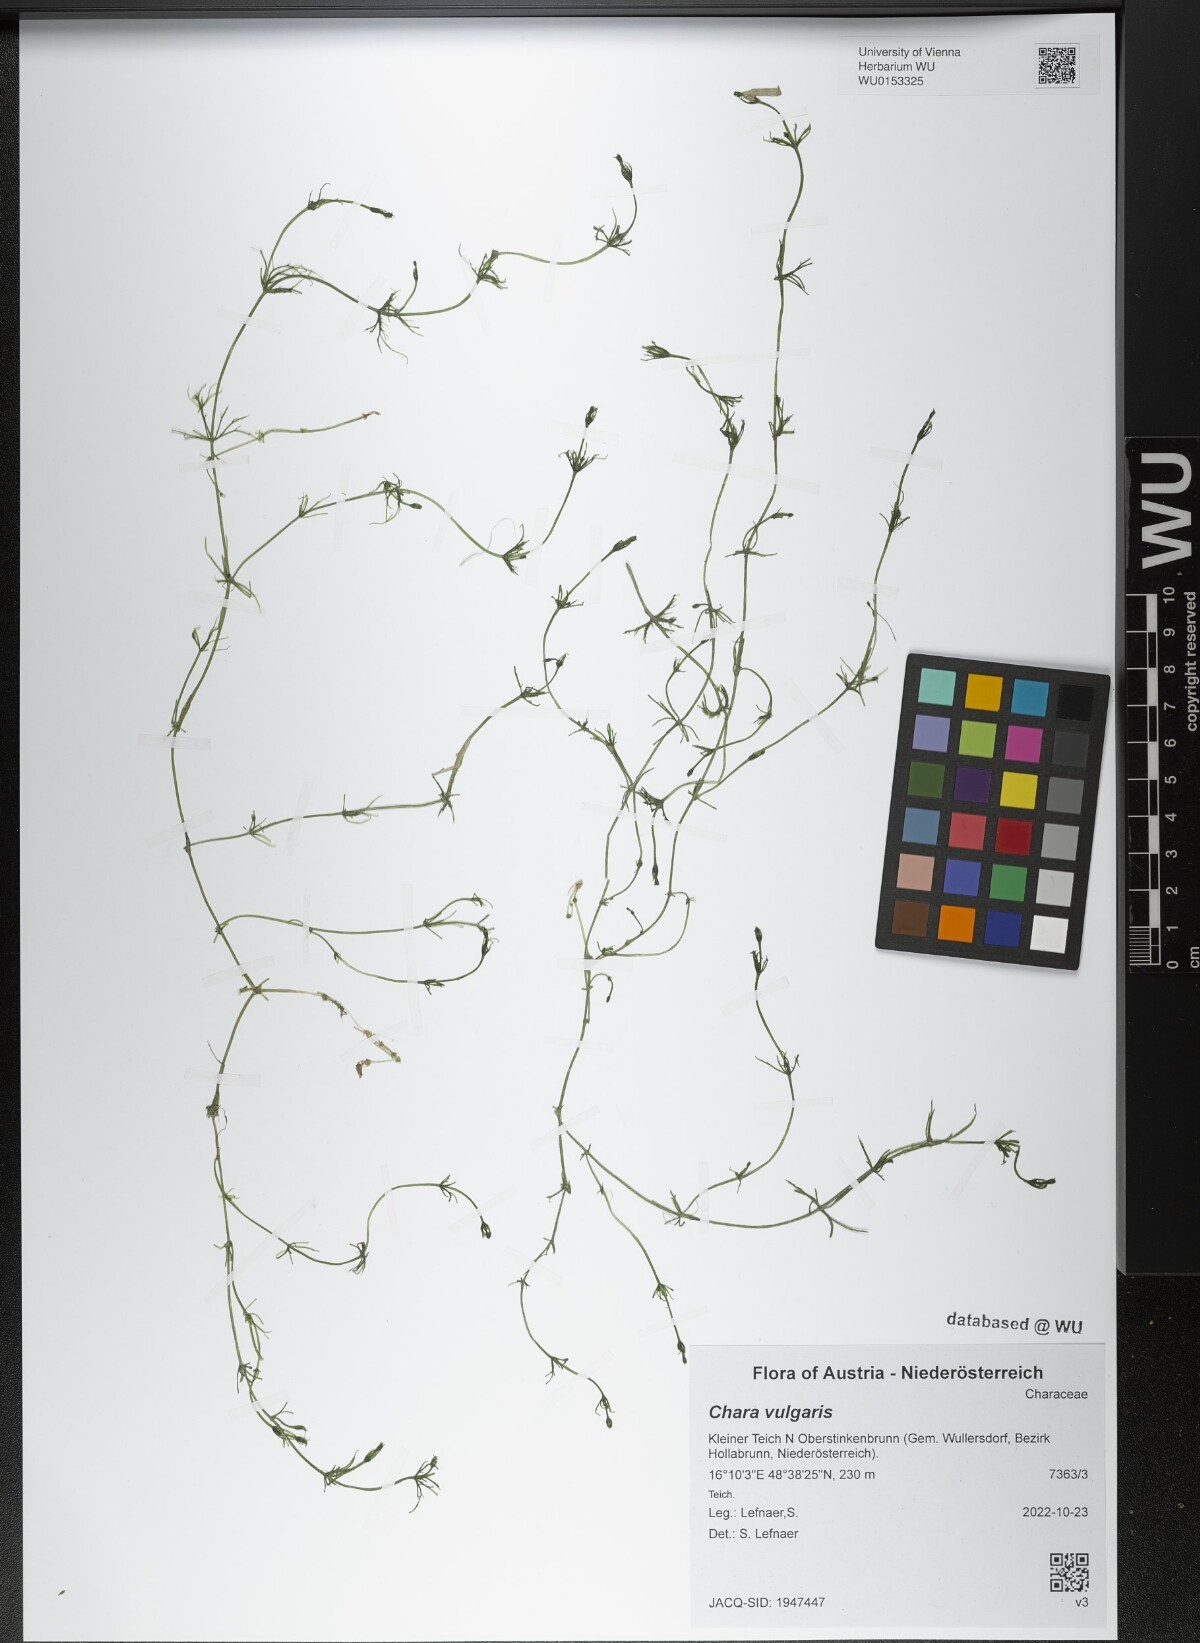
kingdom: Plantae
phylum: Charophyta
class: Charophyceae
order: Charales
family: Characeae
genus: Chara
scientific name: Chara vulgaris
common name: Common stonewort
